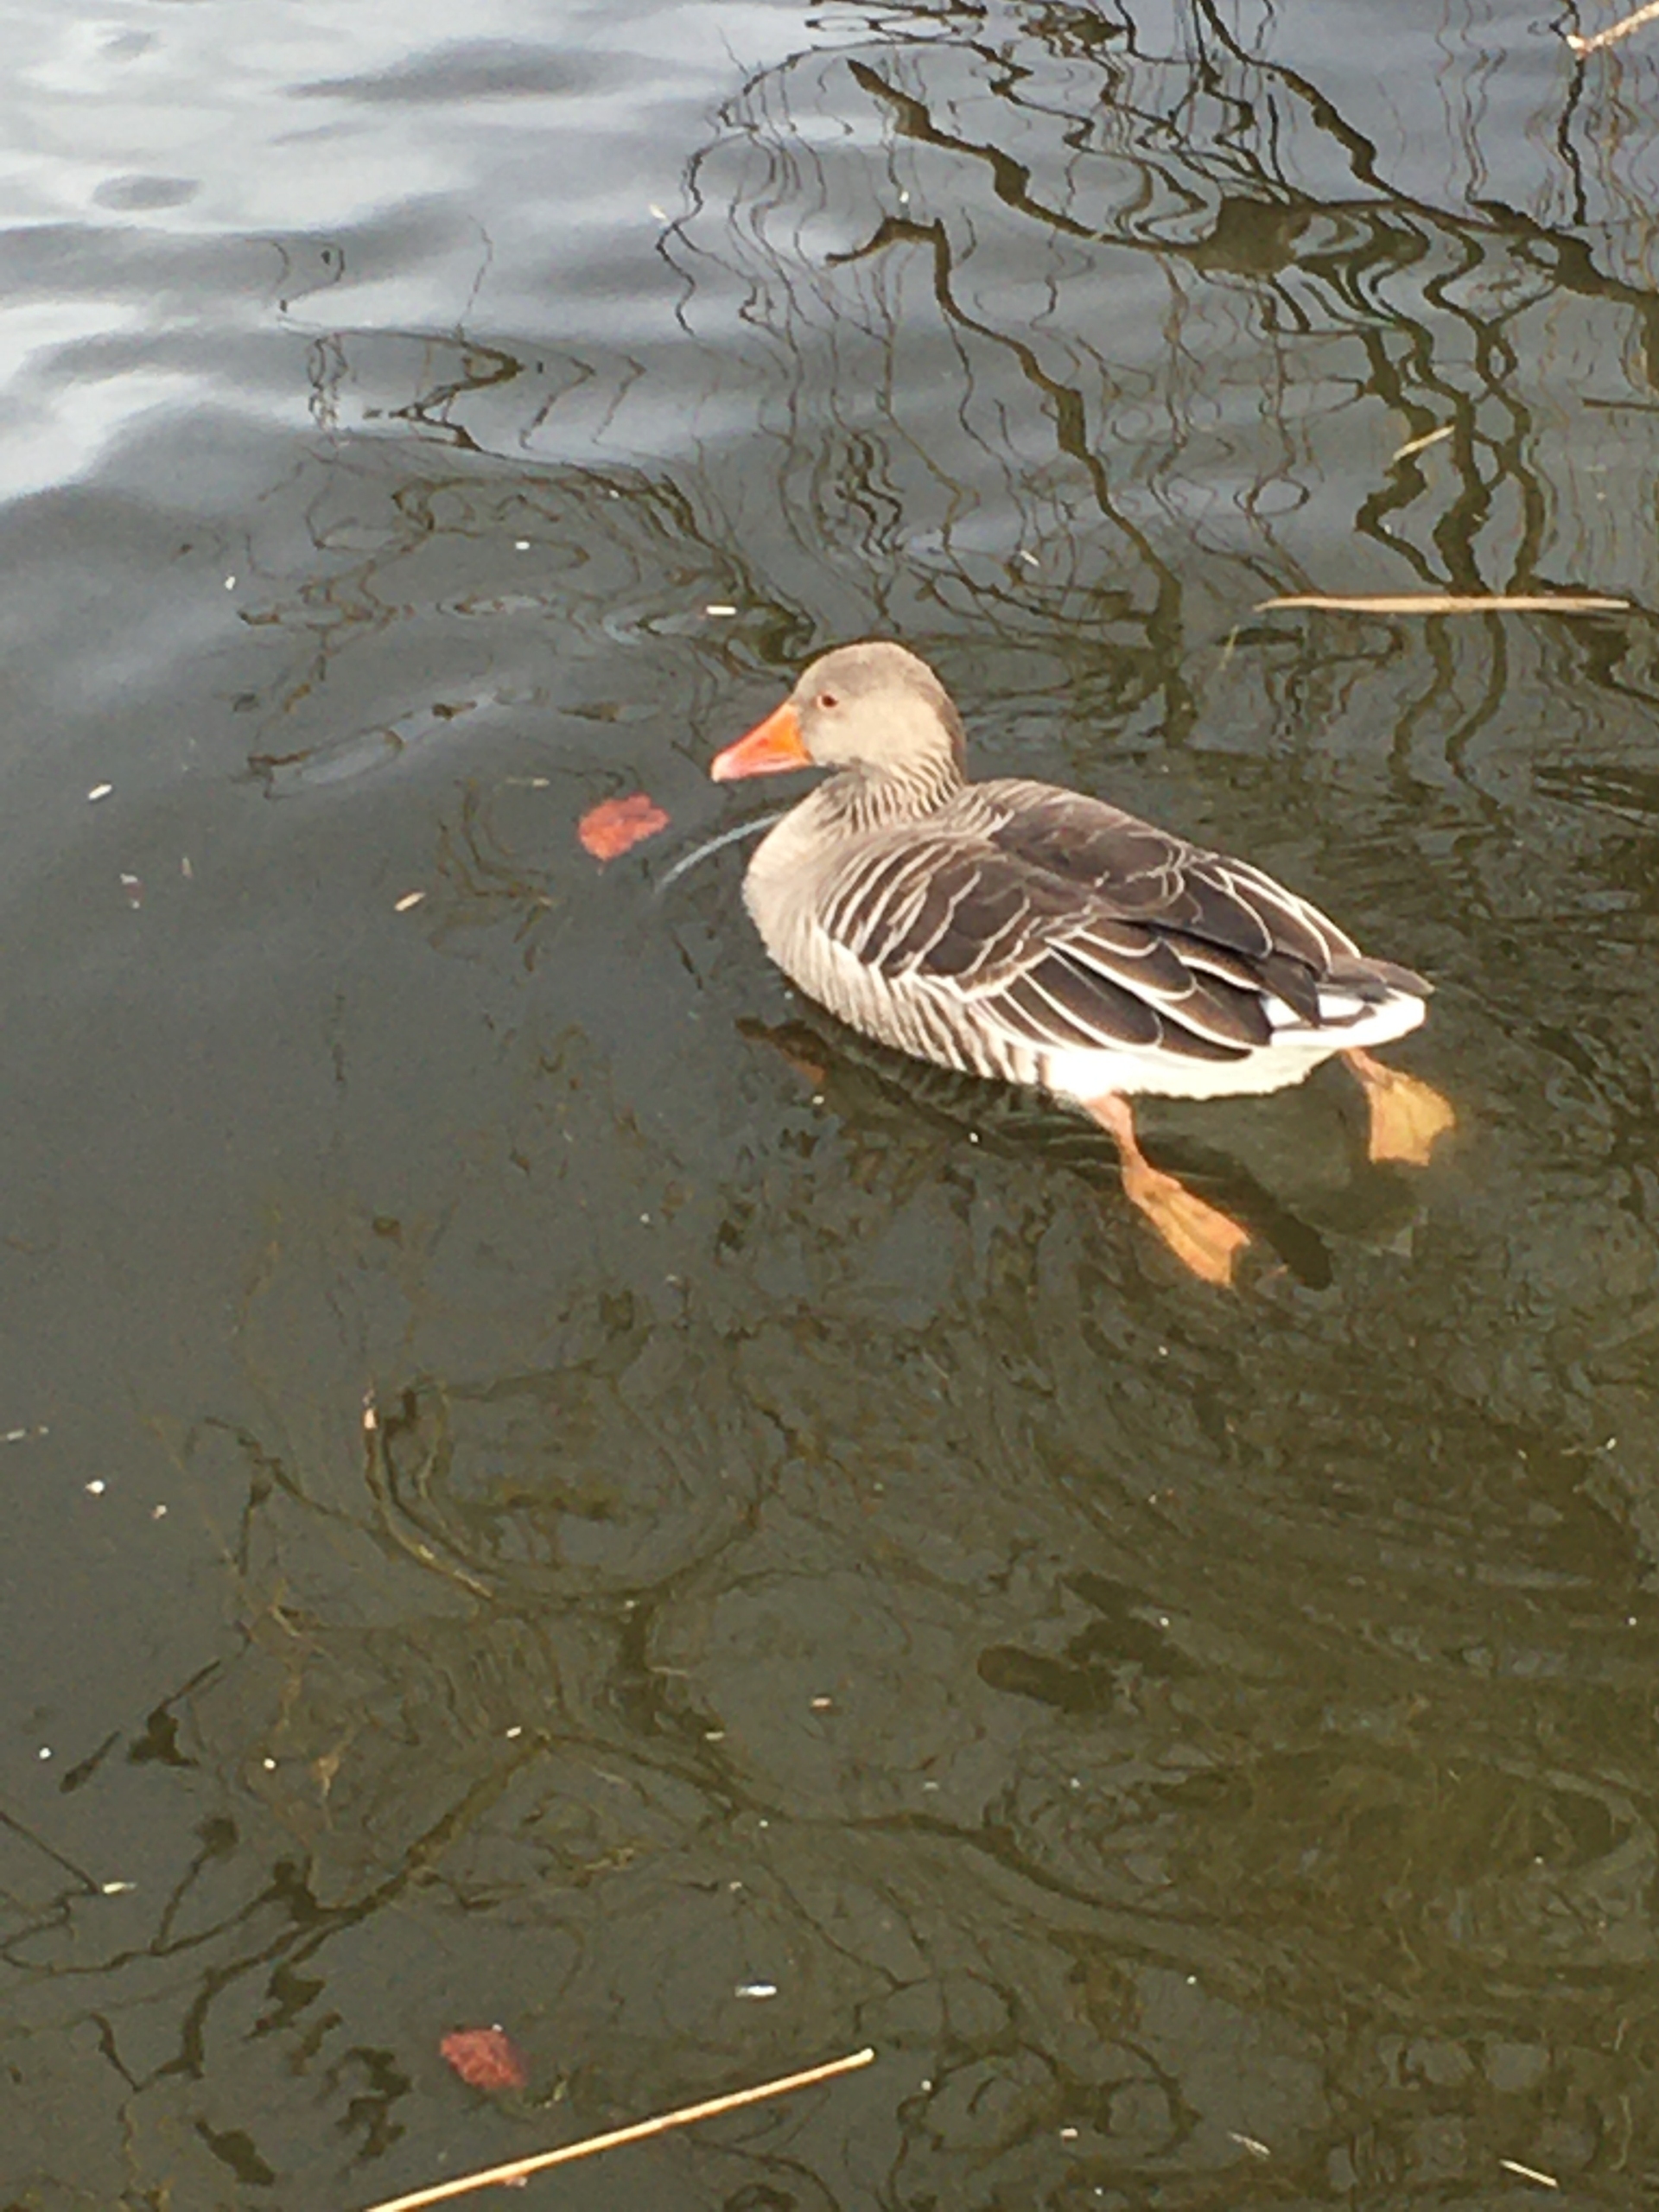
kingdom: Animalia
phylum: Chordata
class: Aves
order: Anseriformes
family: Anatidae
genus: Anser
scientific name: Anser anser
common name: Grågås
